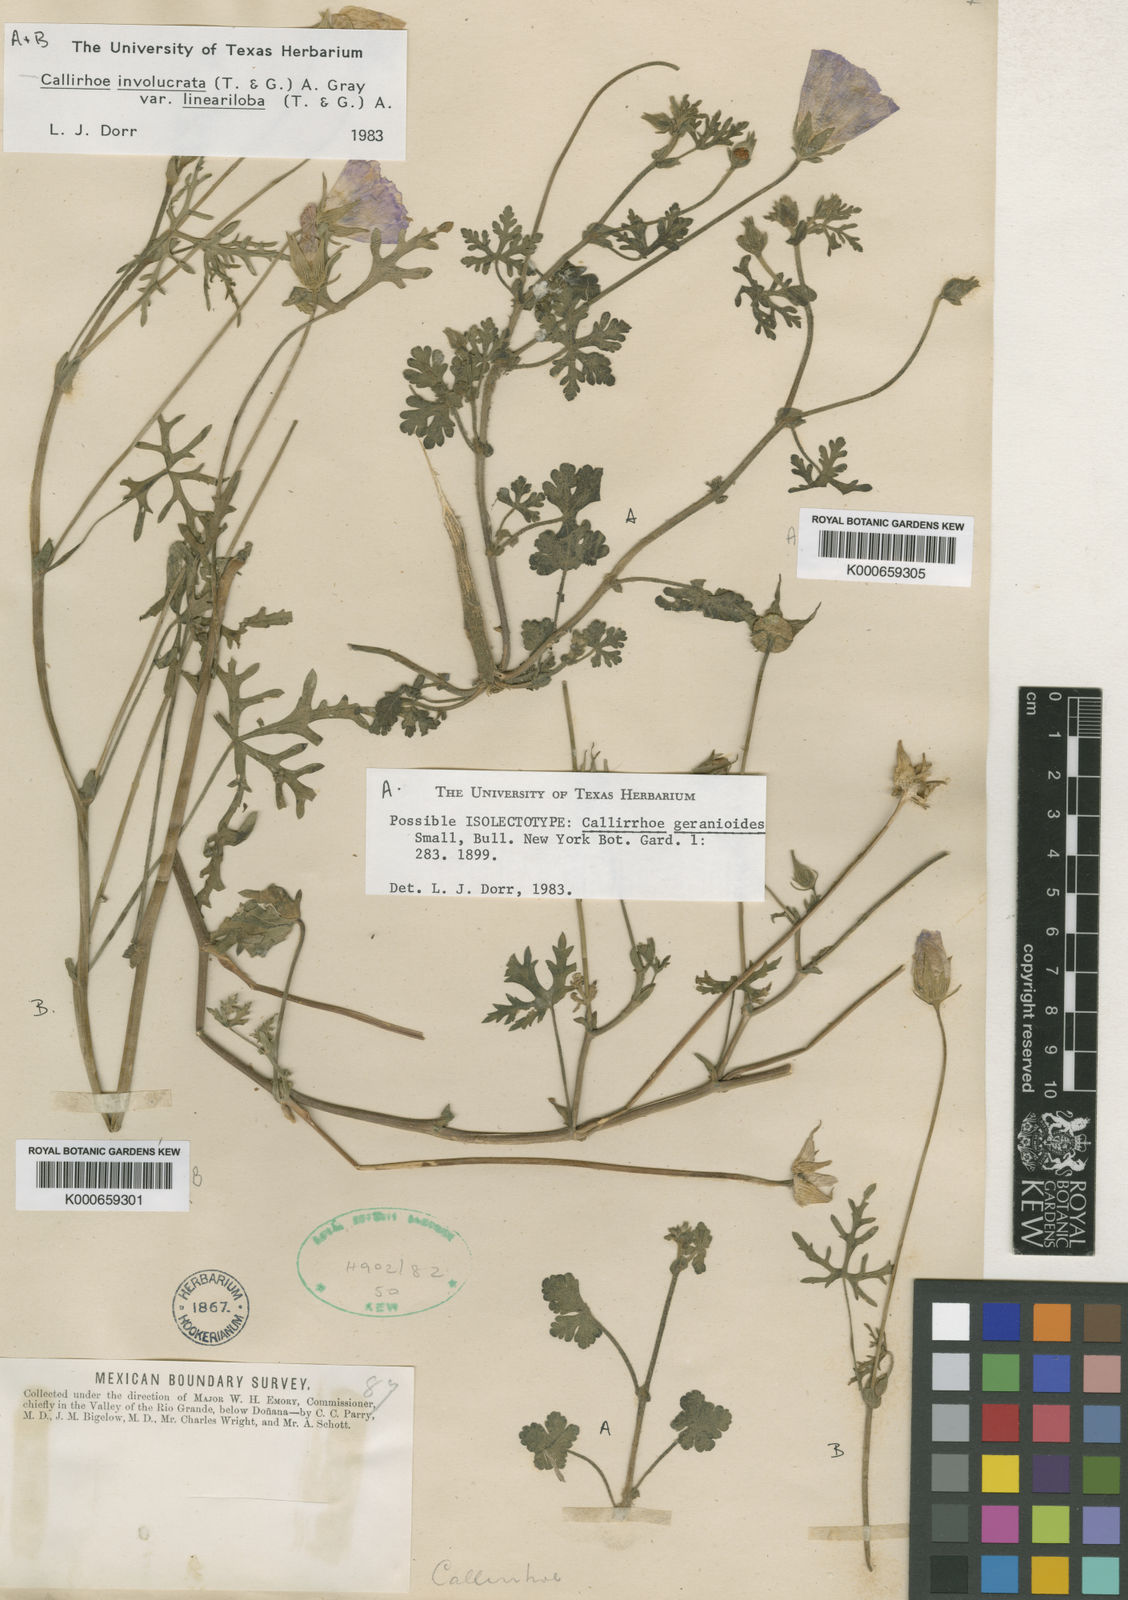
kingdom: Plantae
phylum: Tracheophyta
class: Magnoliopsida
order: Malvales
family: Malvaceae
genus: Callirhoe
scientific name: Callirhoe involucrata
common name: Purple poppy-mallow
